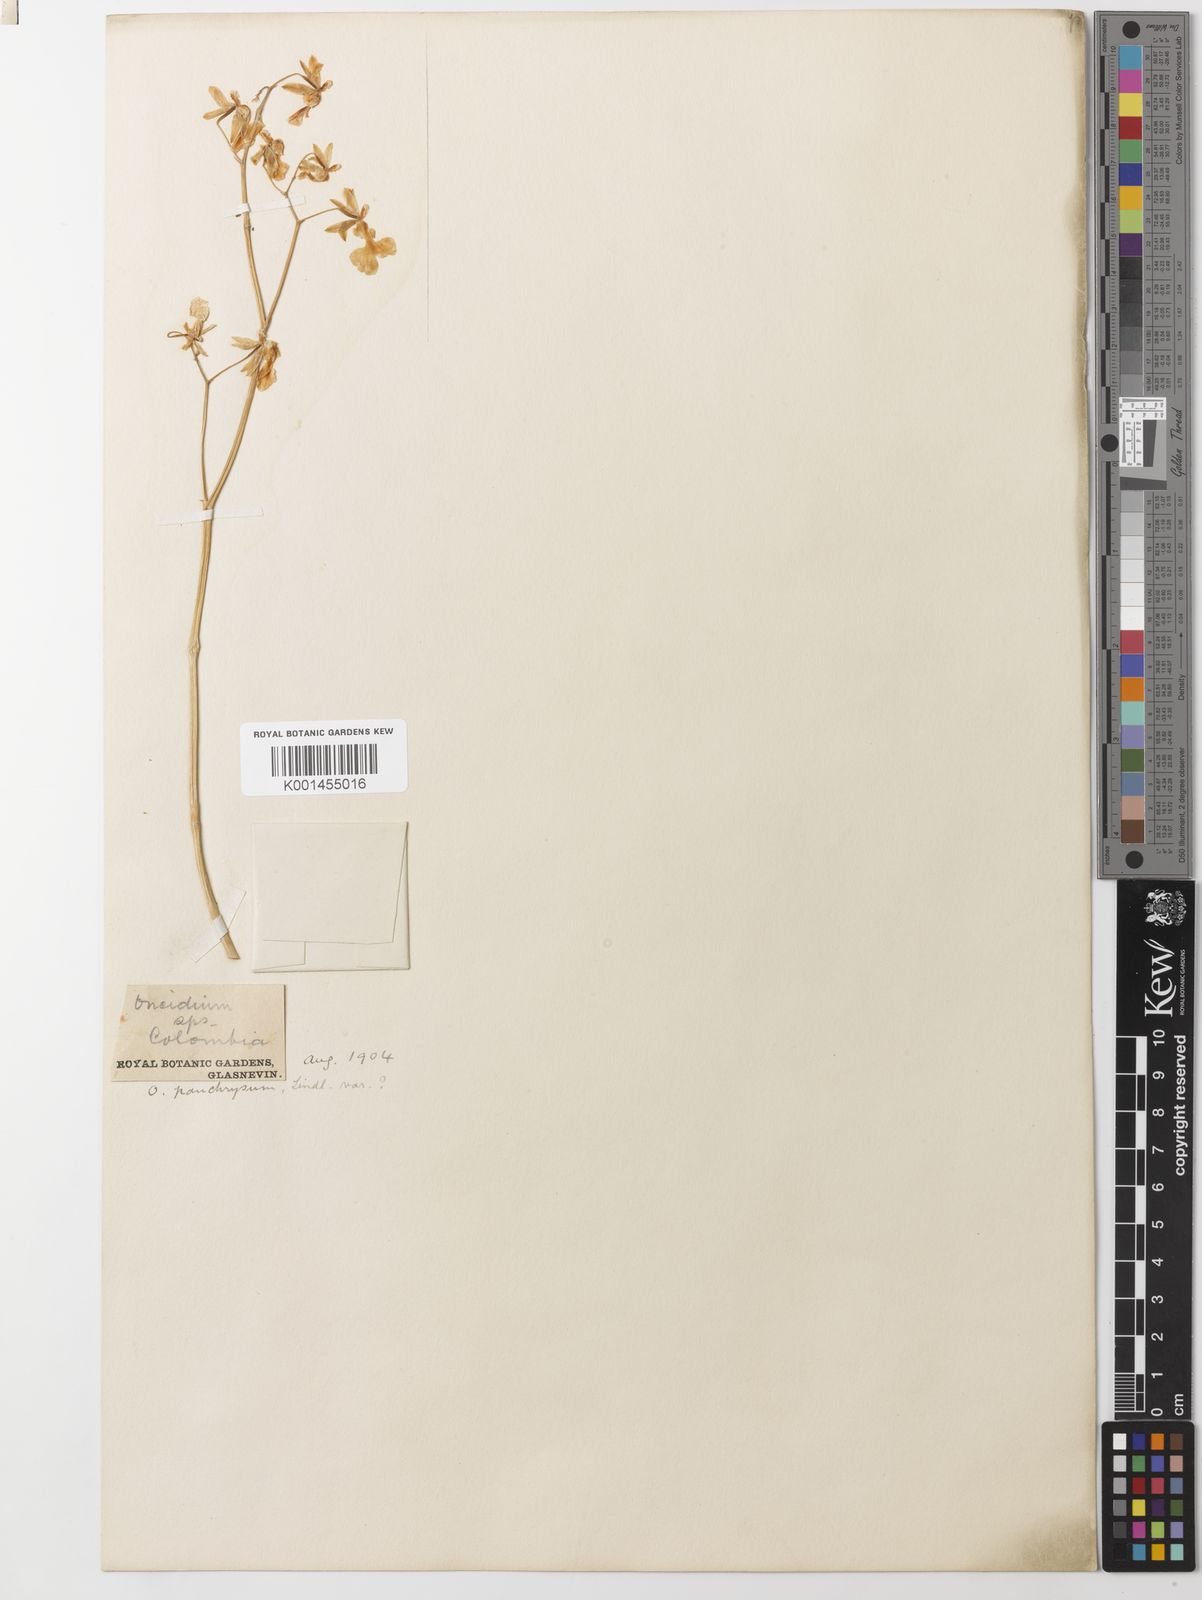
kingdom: Plantae
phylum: Tracheophyta
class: Liliopsida
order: Asparagales
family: Orchidaceae
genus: Oncidium
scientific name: Oncidium panchrysum
